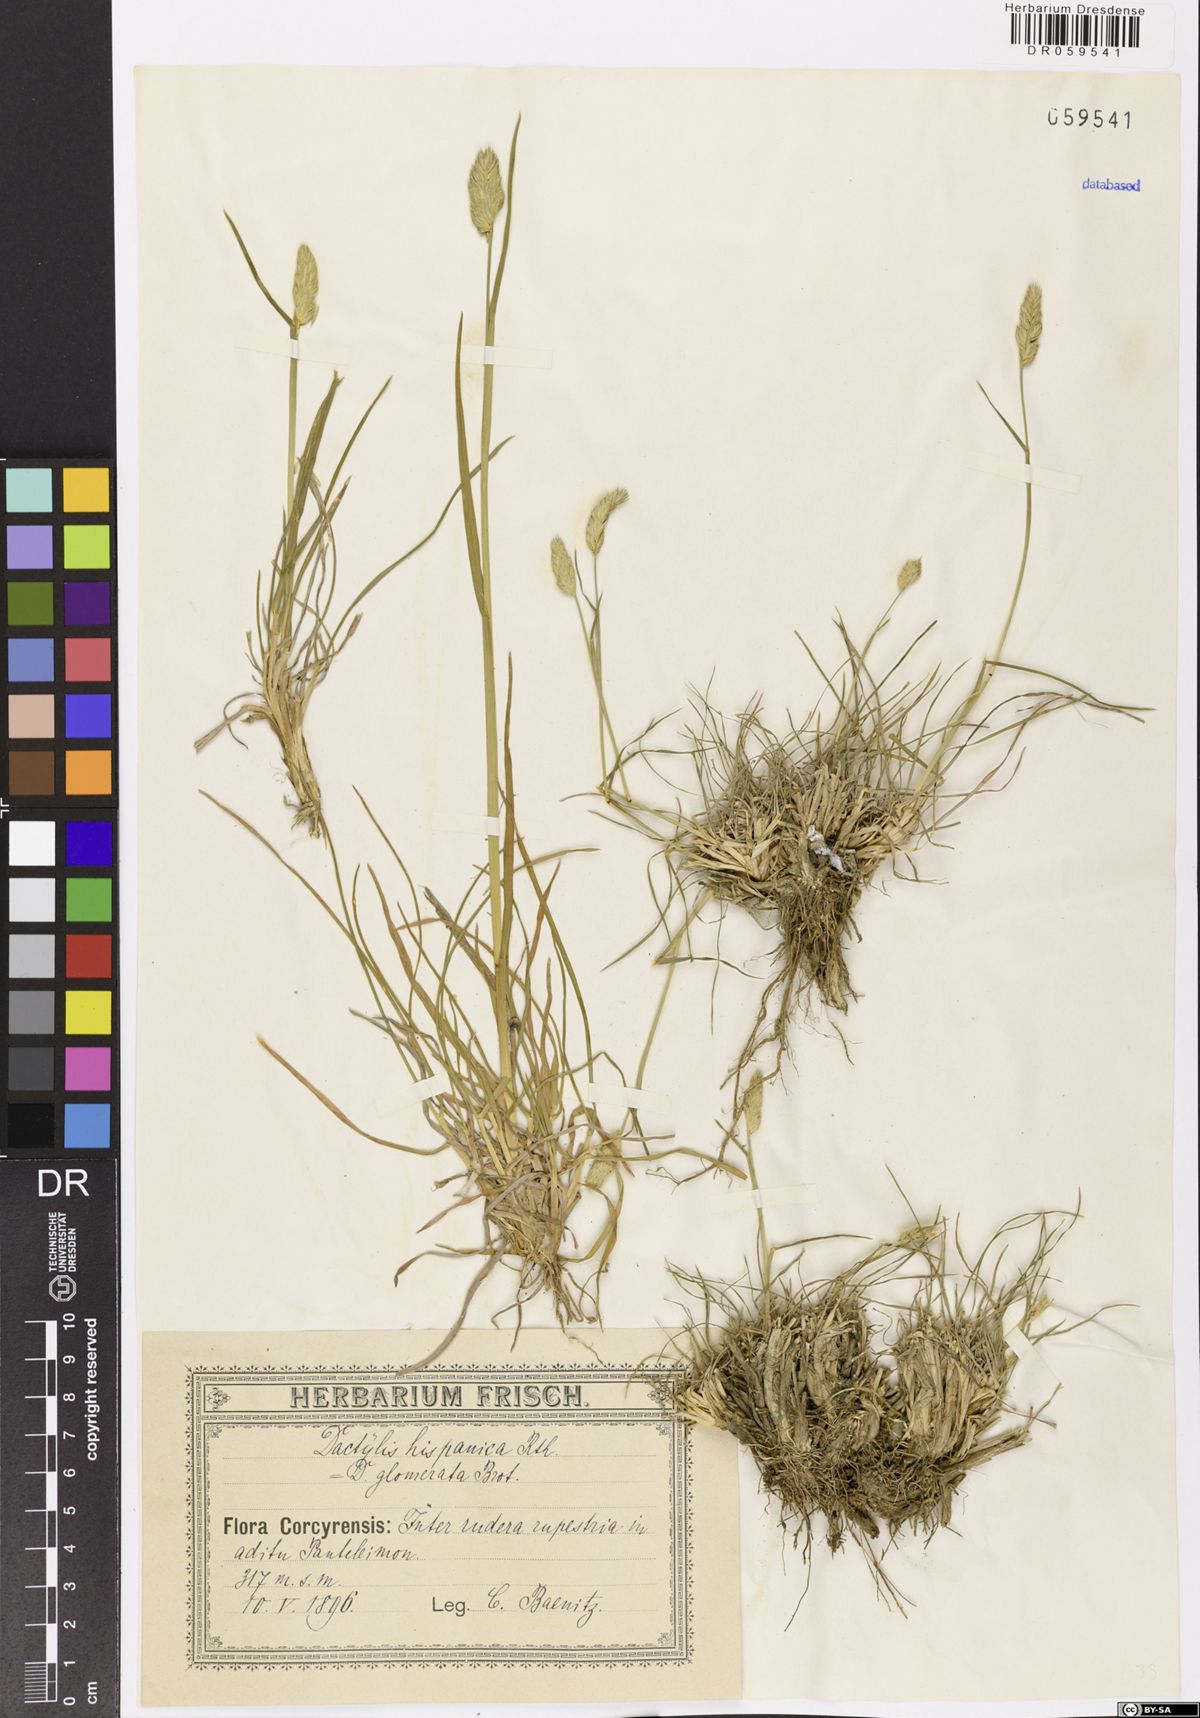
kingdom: Plantae
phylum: Tracheophyta
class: Liliopsida
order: Poales
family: Poaceae
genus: Dactylis
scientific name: Dactylis glomerata
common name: Orchardgrass
